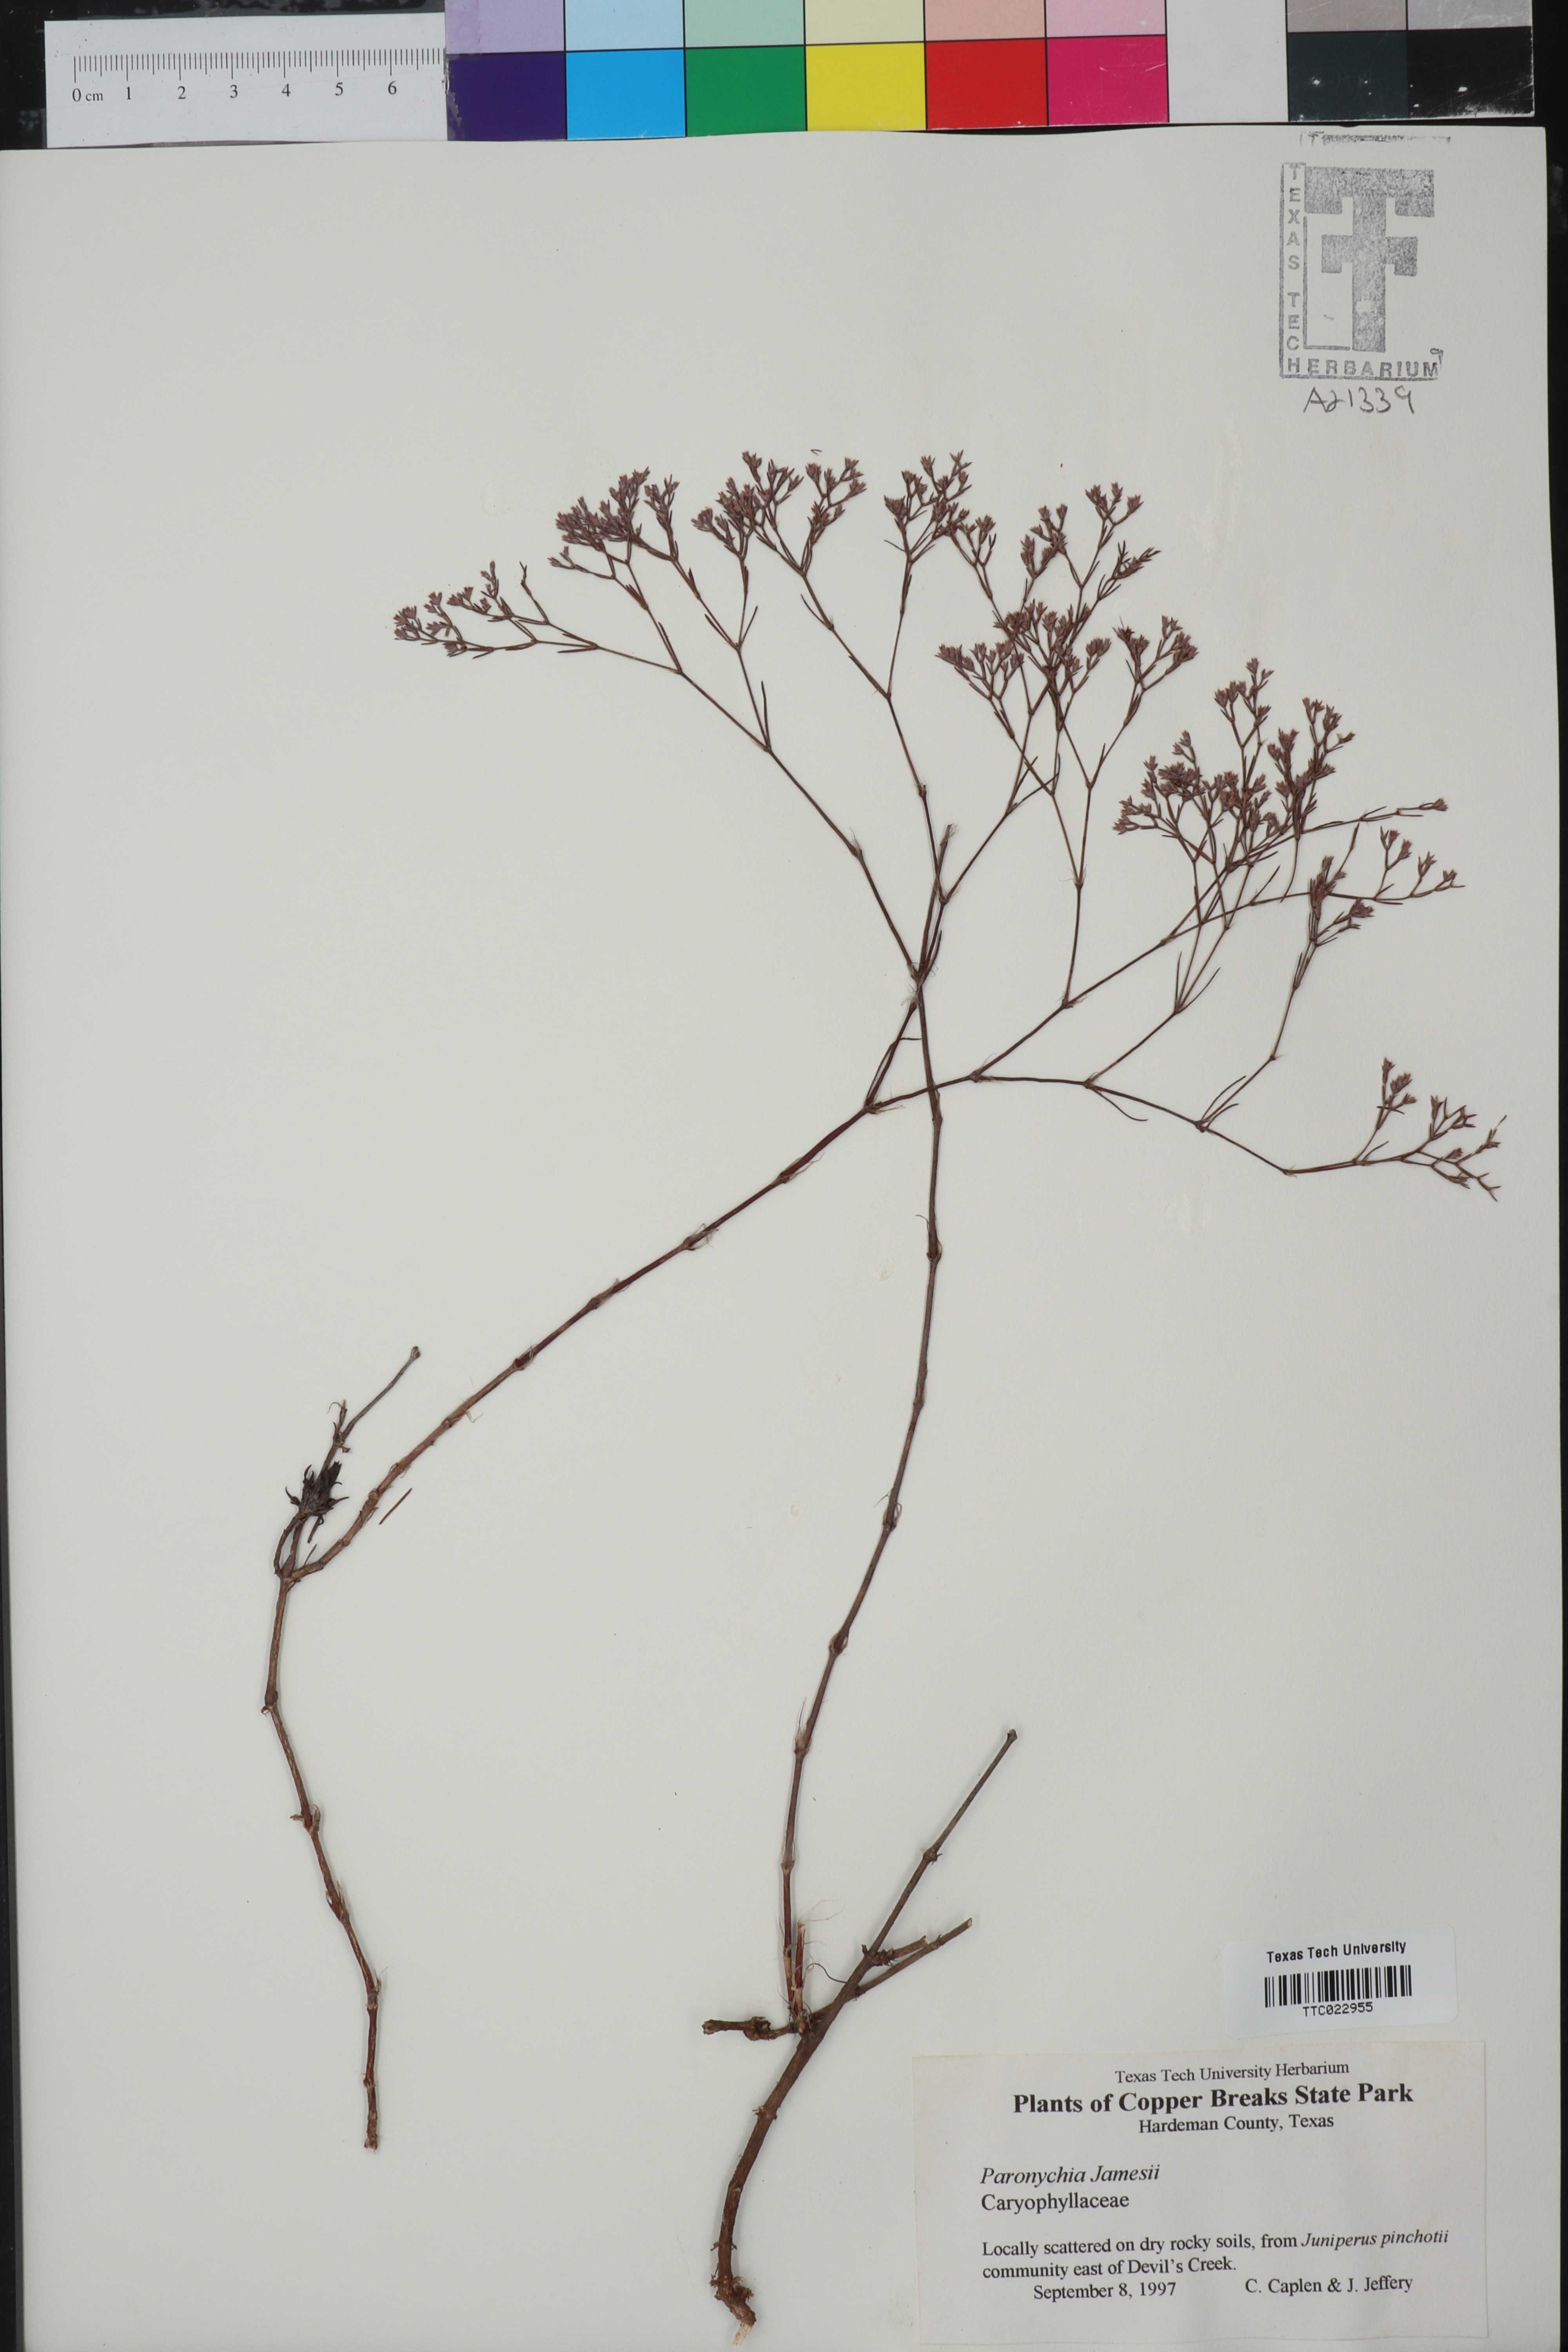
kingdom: Plantae
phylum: Tracheophyta
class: Magnoliopsida
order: Caryophyllales
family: Caryophyllaceae
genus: Paronychia
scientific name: Paronychia jamesii
